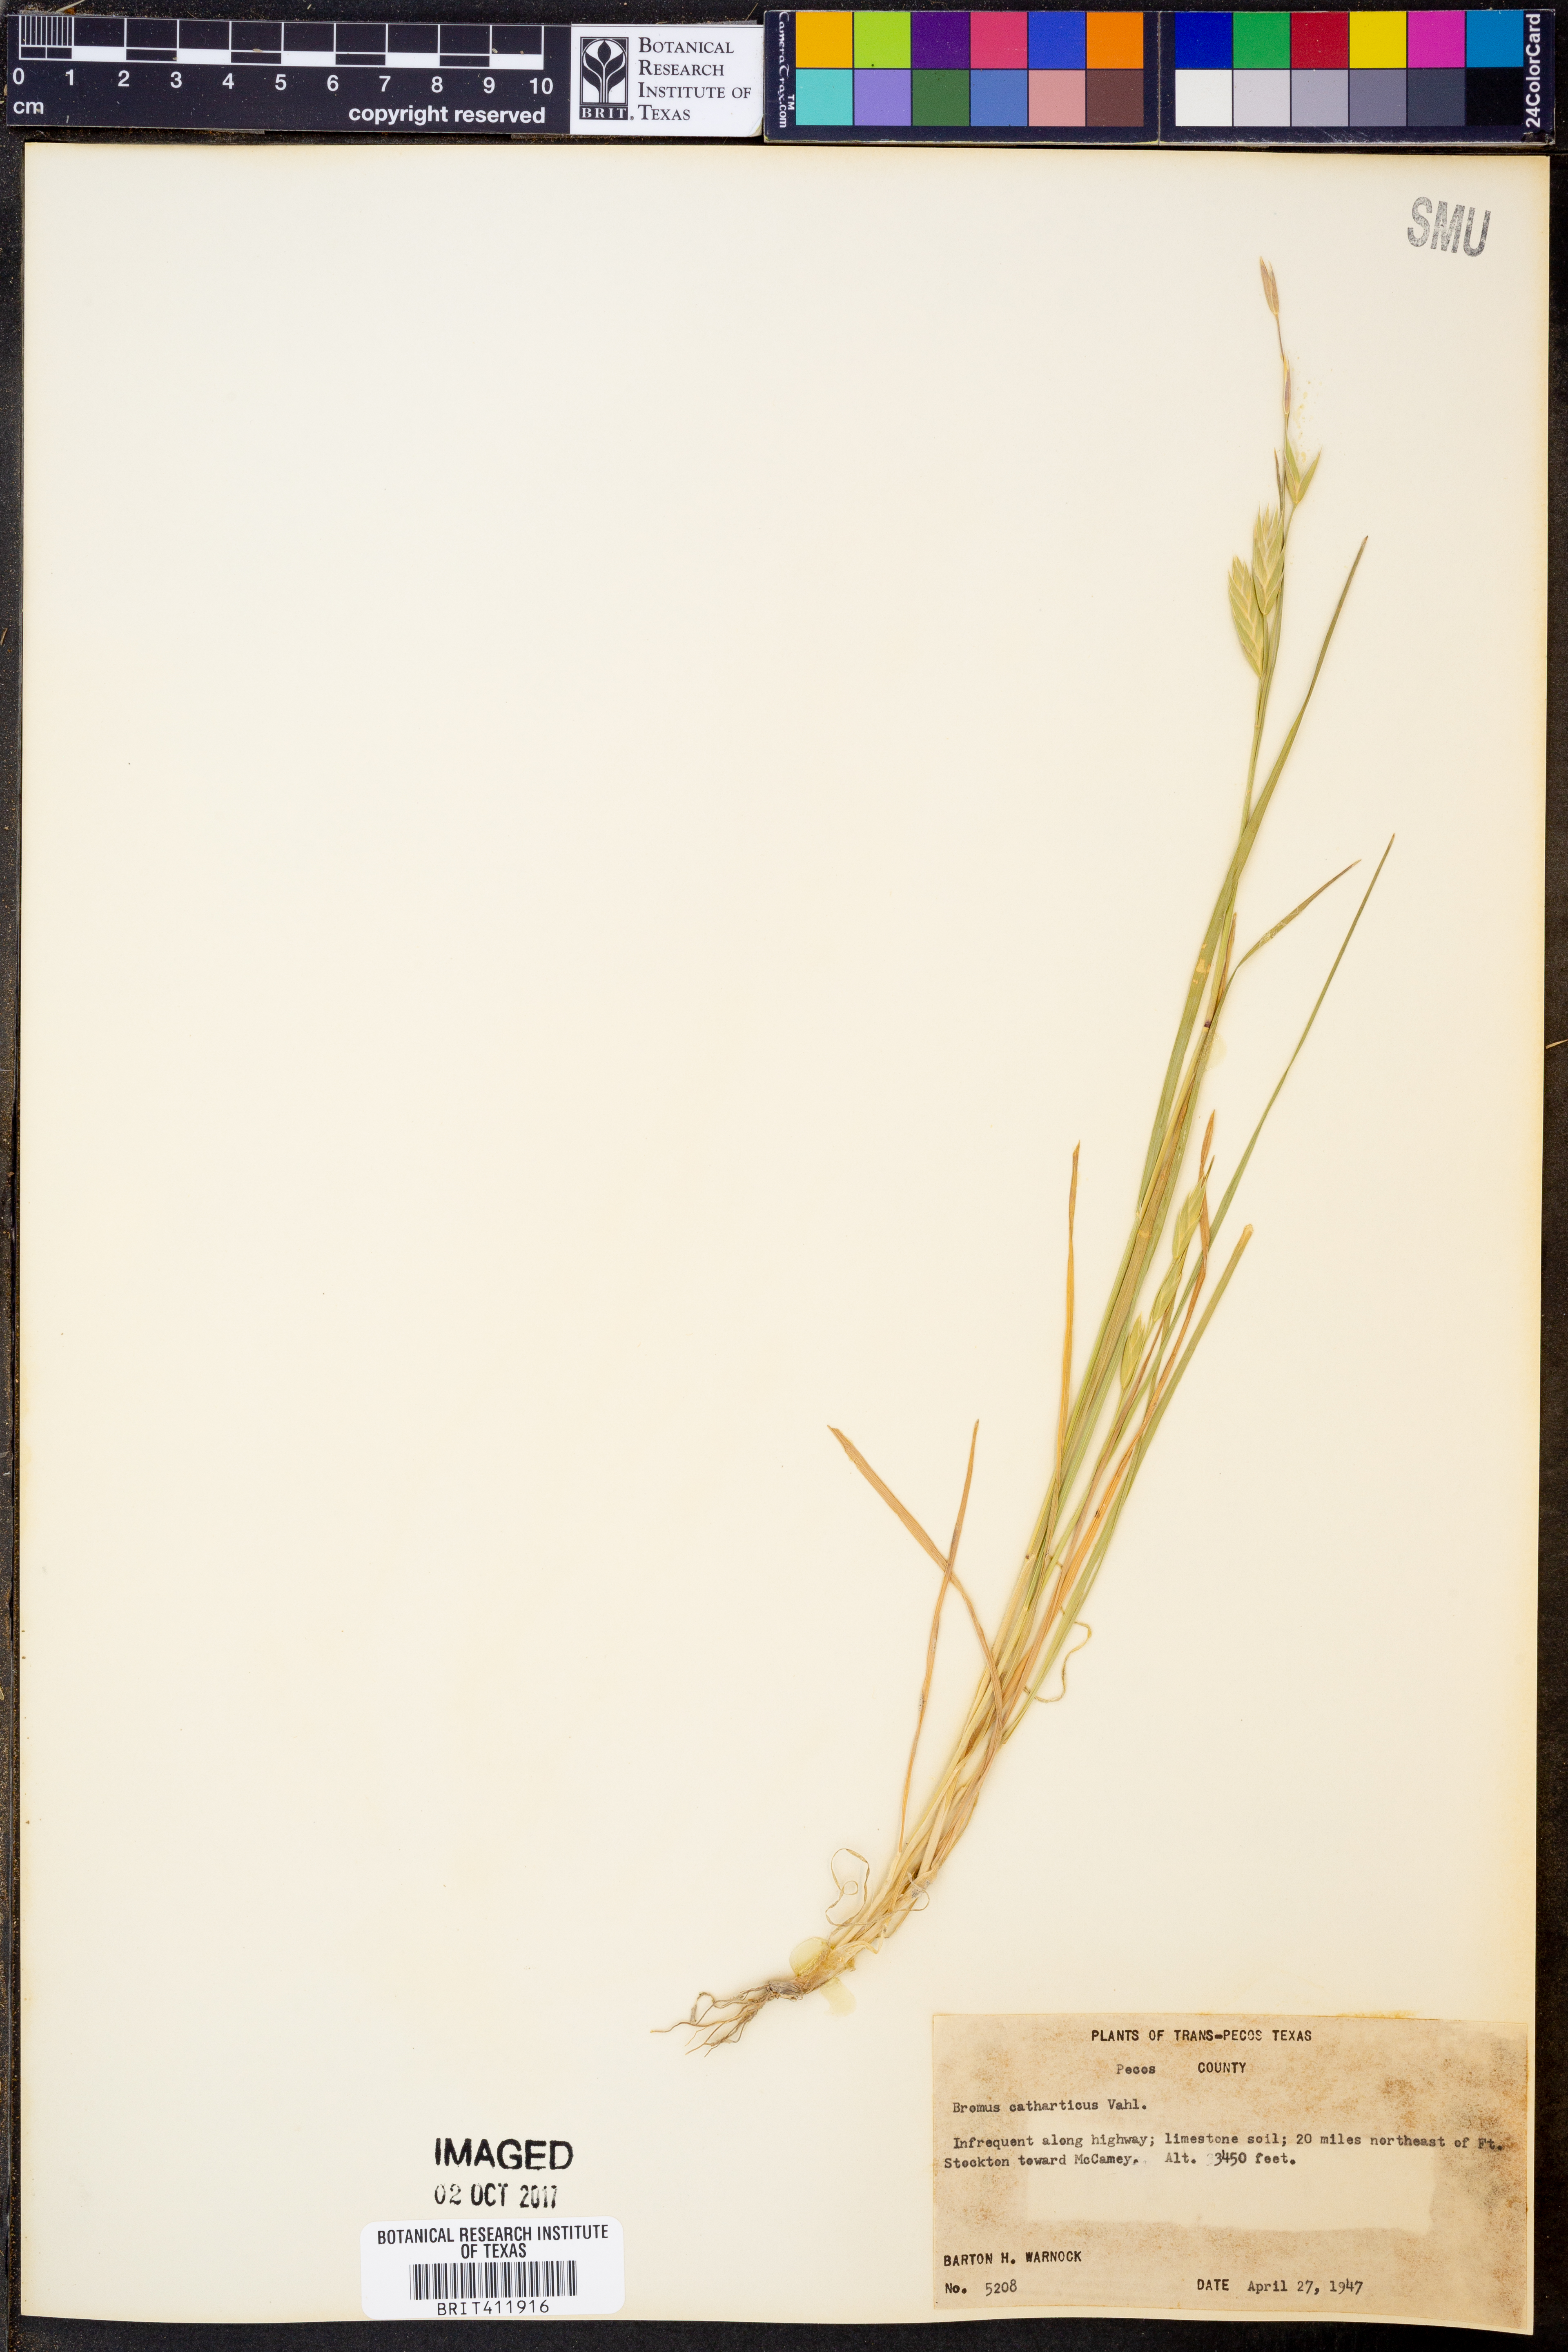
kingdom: Plantae
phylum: Tracheophyta
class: Liliopsida
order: Poales
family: Poaceae
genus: Bromus
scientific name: Bromus catharticus
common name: Rescuegrass
